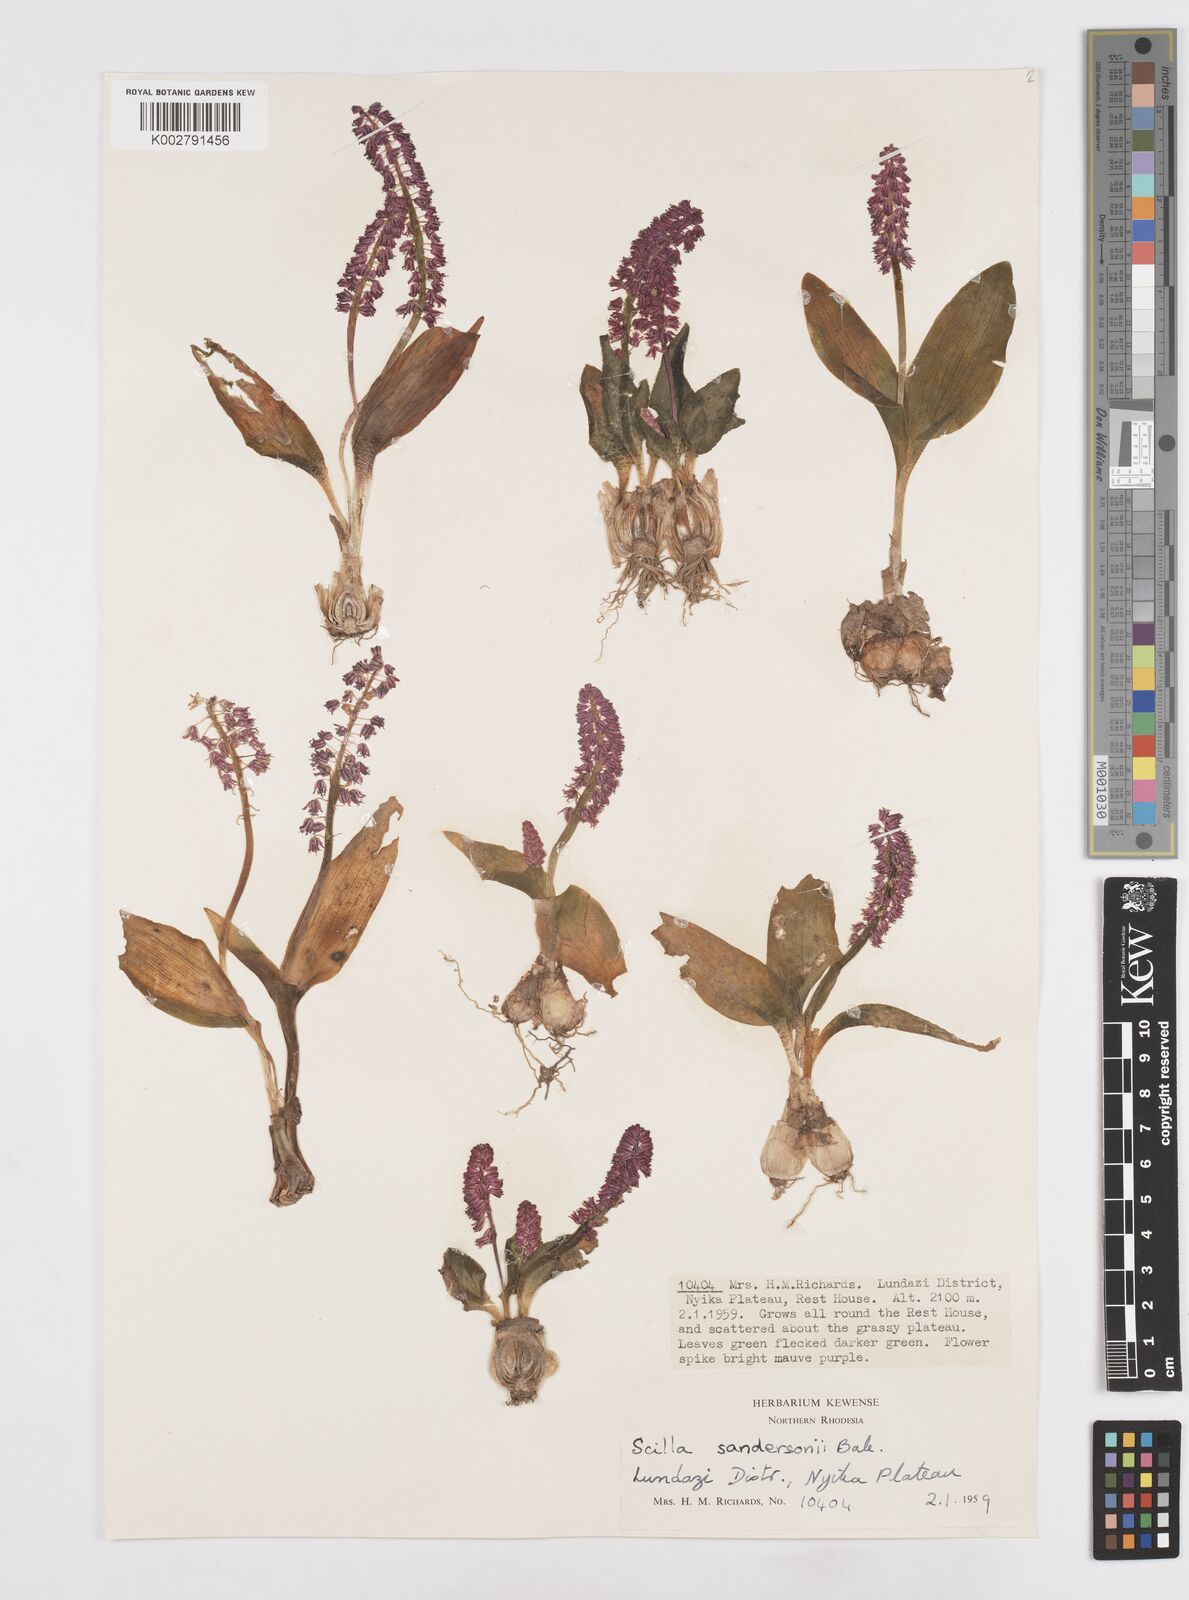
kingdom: Plantae
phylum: Tracheophyta
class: Liliopsida
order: Asparagales
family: Asparagaceae
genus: Ledebouria
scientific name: Ledebouria sandersonii
